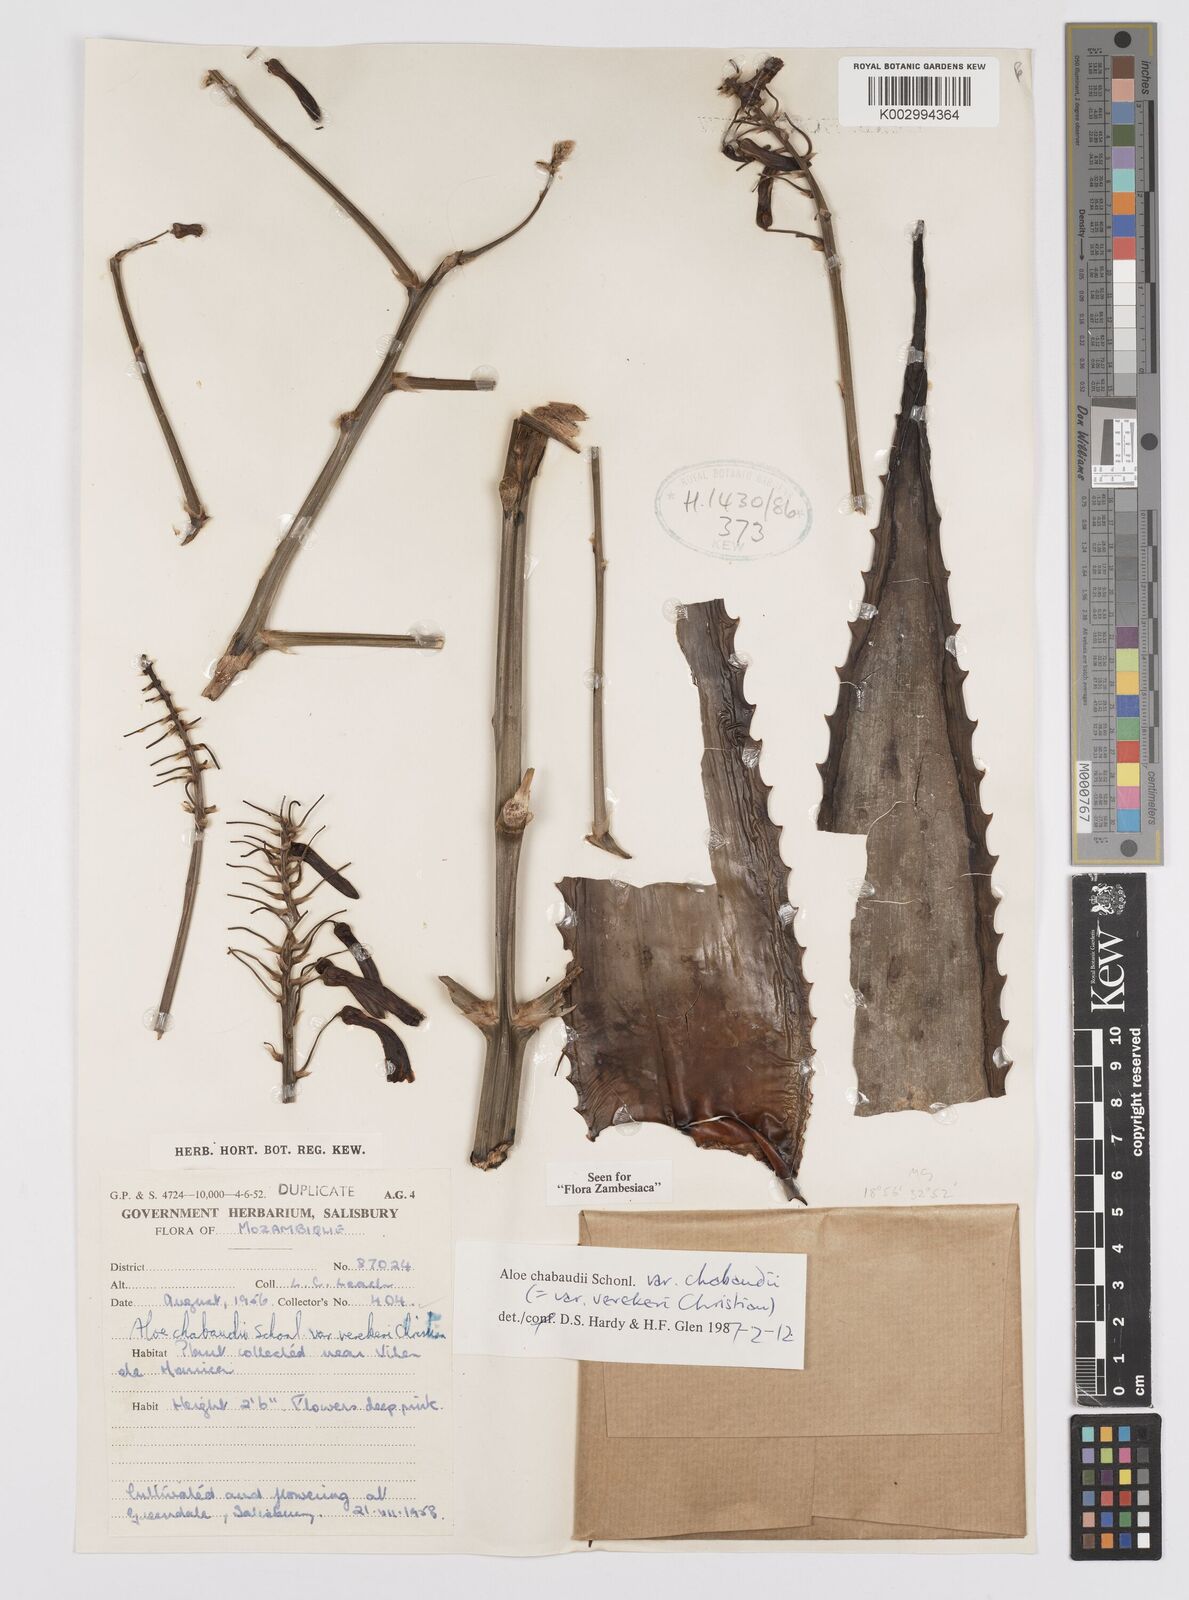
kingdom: Plantae
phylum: Tracheophyta
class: Liliopsida
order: Asparagales
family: Asphodelaceae
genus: Aloe
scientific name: Aloe chabaudii
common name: Chabaud's aloe
